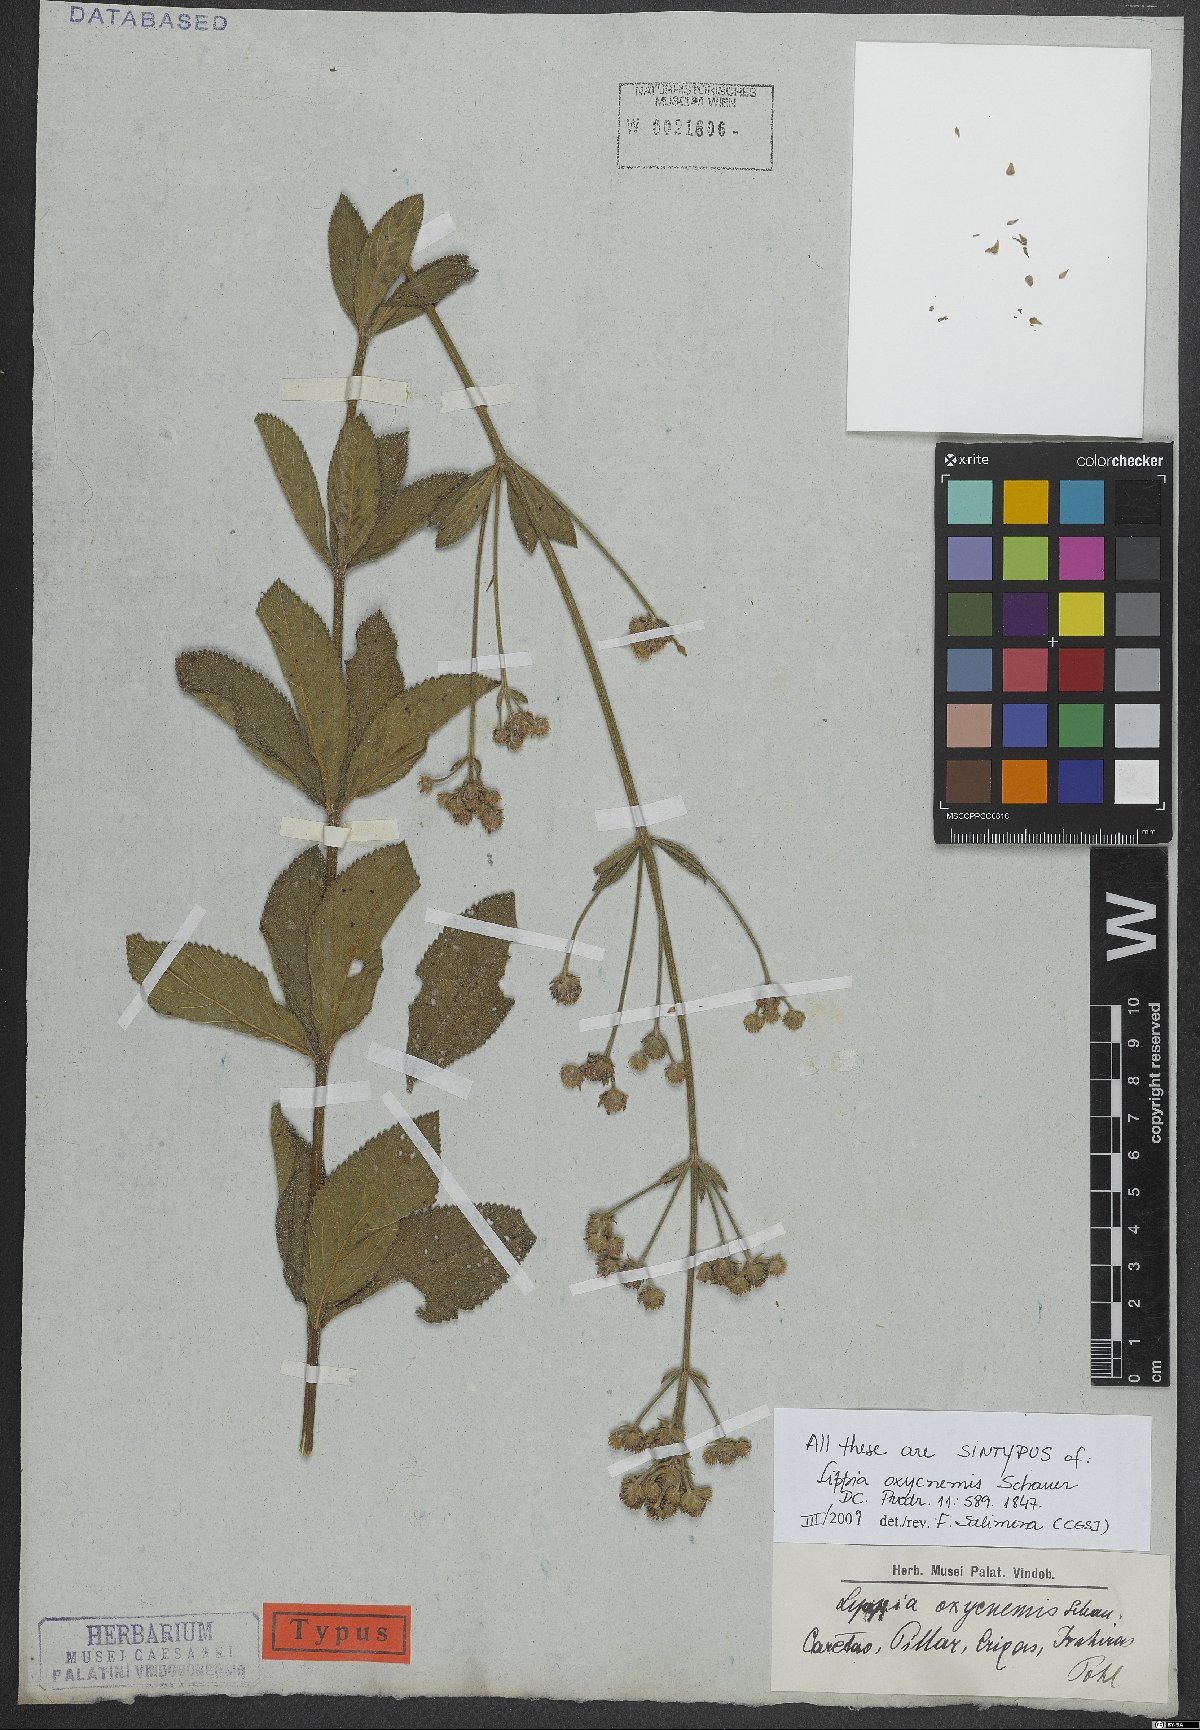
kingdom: Plantae
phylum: Tracheophyta
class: Magnoliopsida
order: Lamiales
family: Verbenaceae
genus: Lippia
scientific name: Lippia oxycnemis
